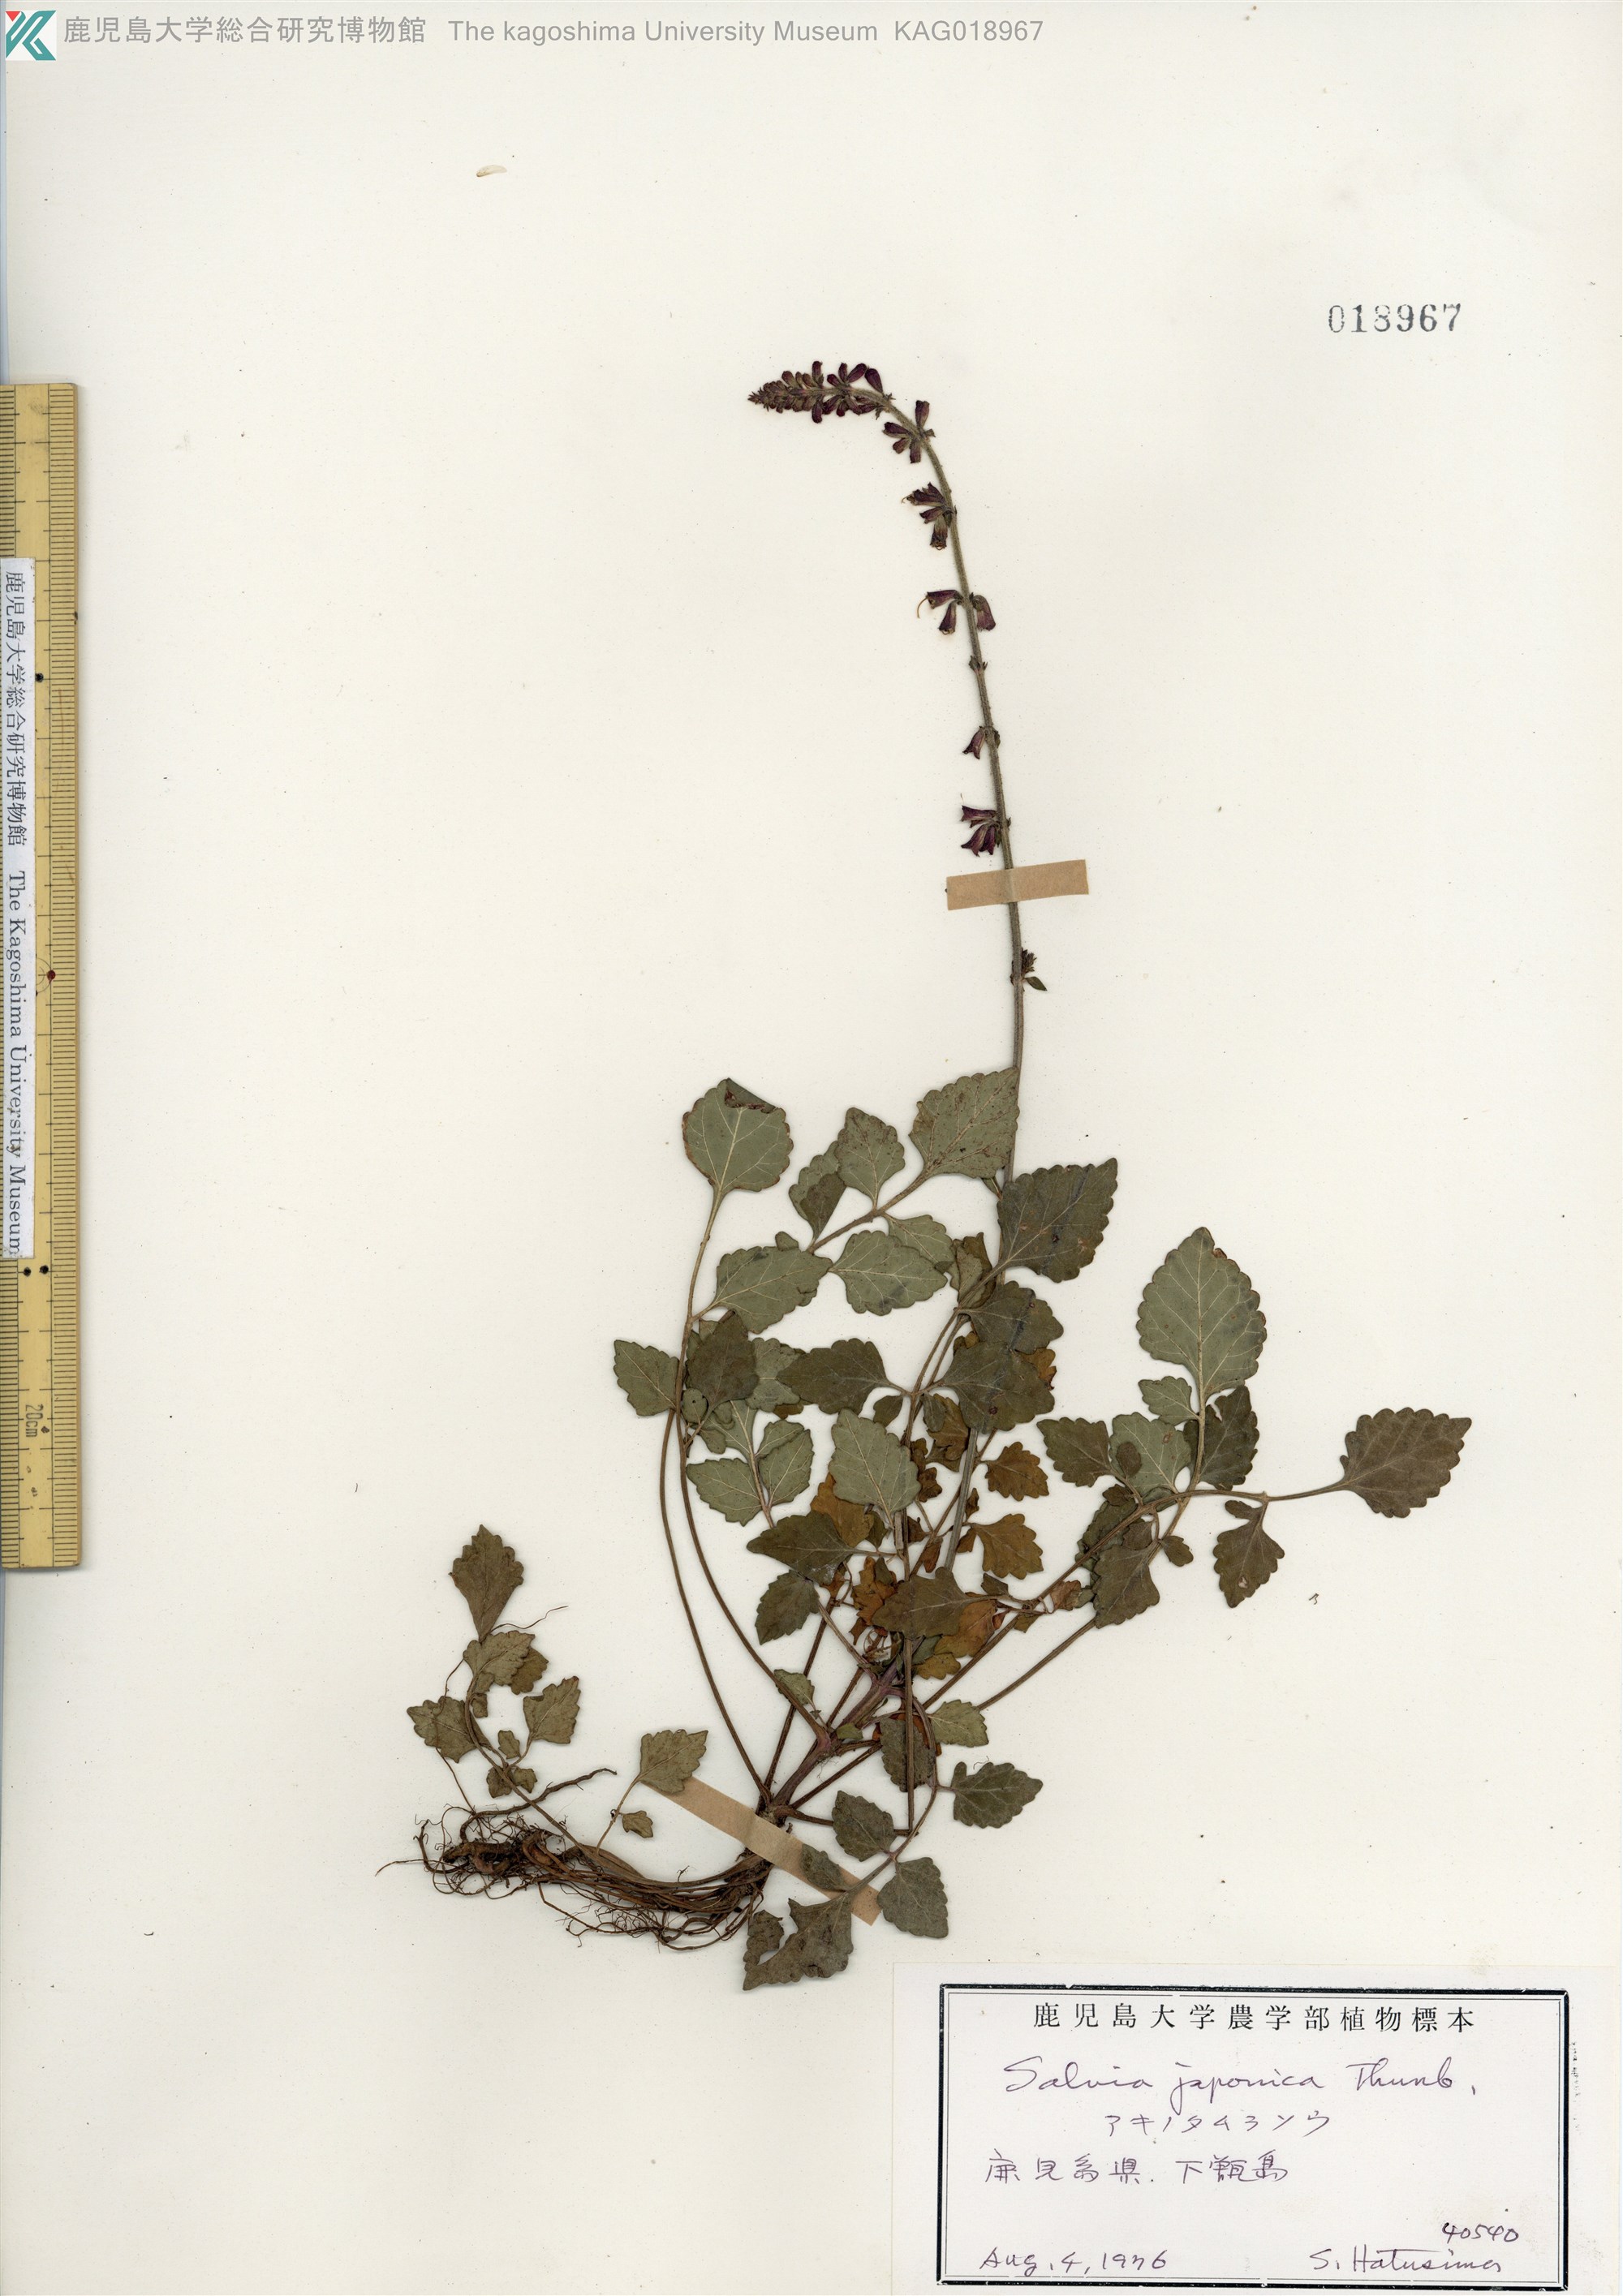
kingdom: Plantae
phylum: Tracheophyta
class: Magnoliopsida
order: Lamiales
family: Lamiaceae
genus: Salvia
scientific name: Salvia japonica
